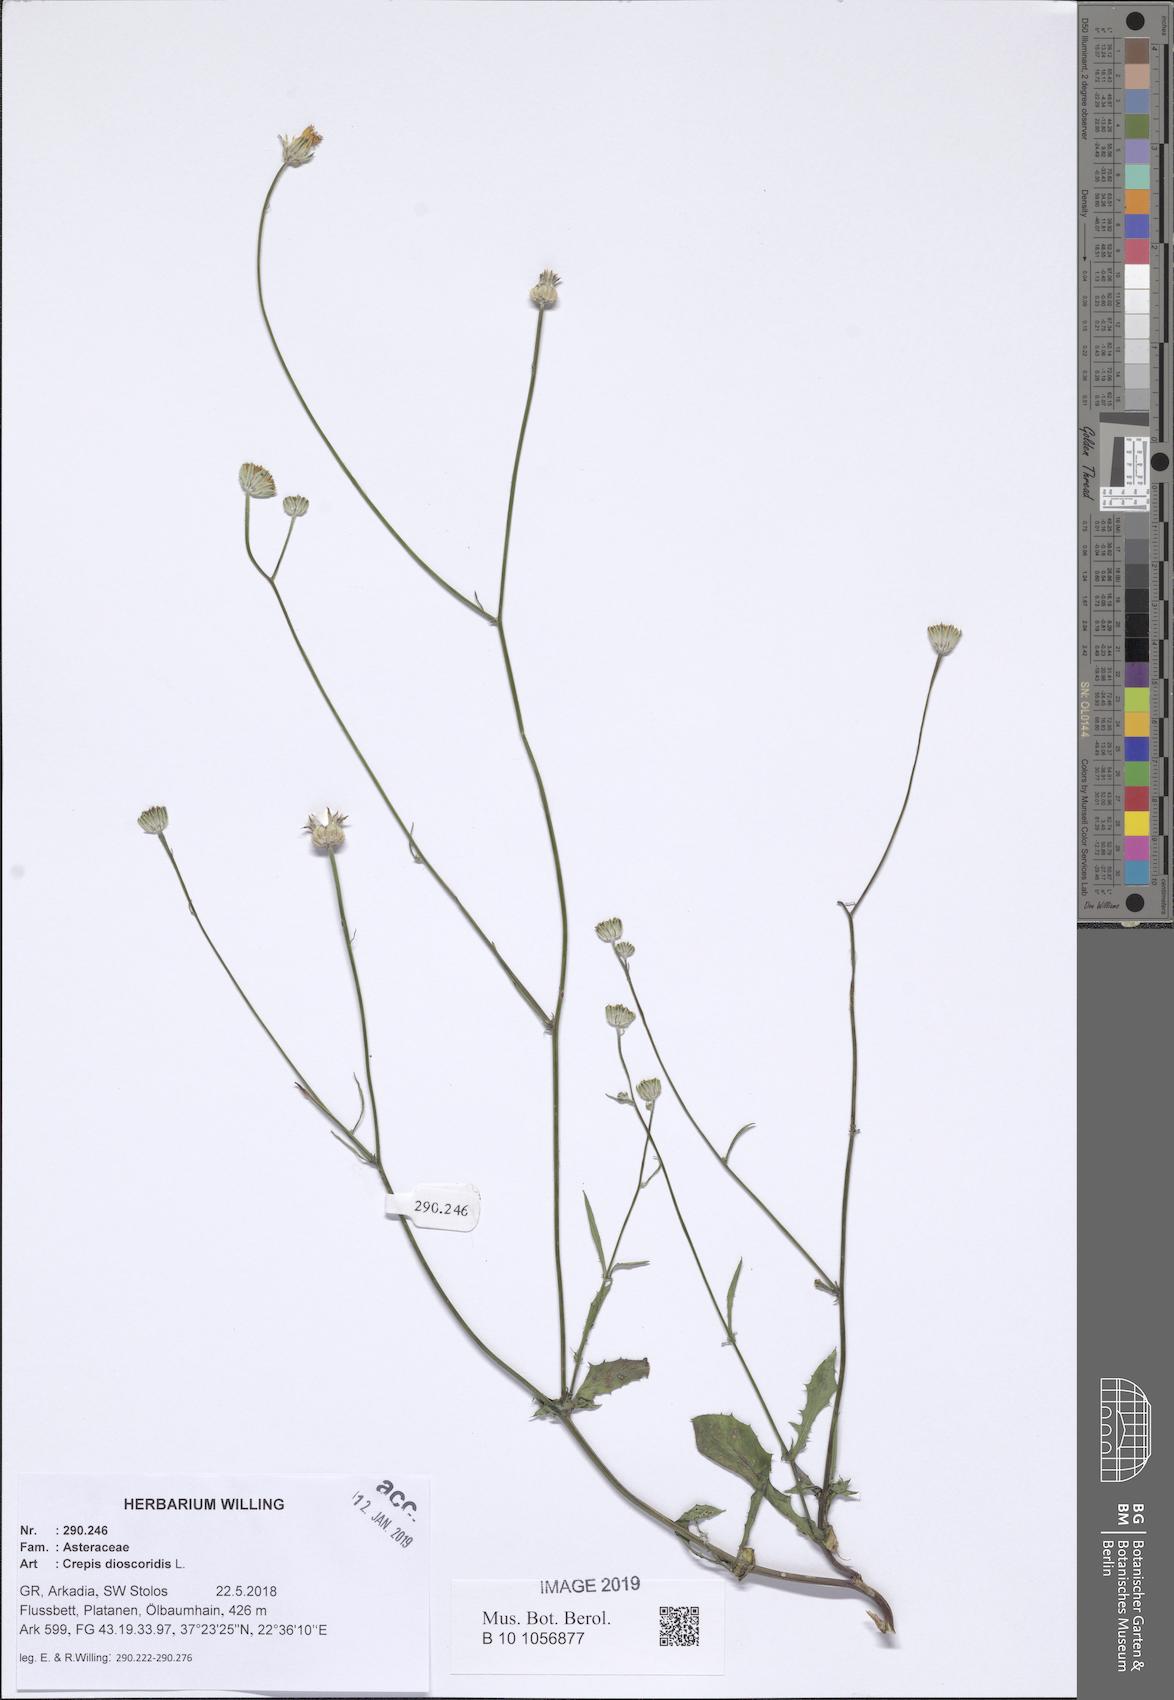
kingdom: Plantae
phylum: Tracheophyta
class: Magnoliopsida
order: Asterales
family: Asteraceae
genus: Crepis
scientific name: Crepis dioscoridis
